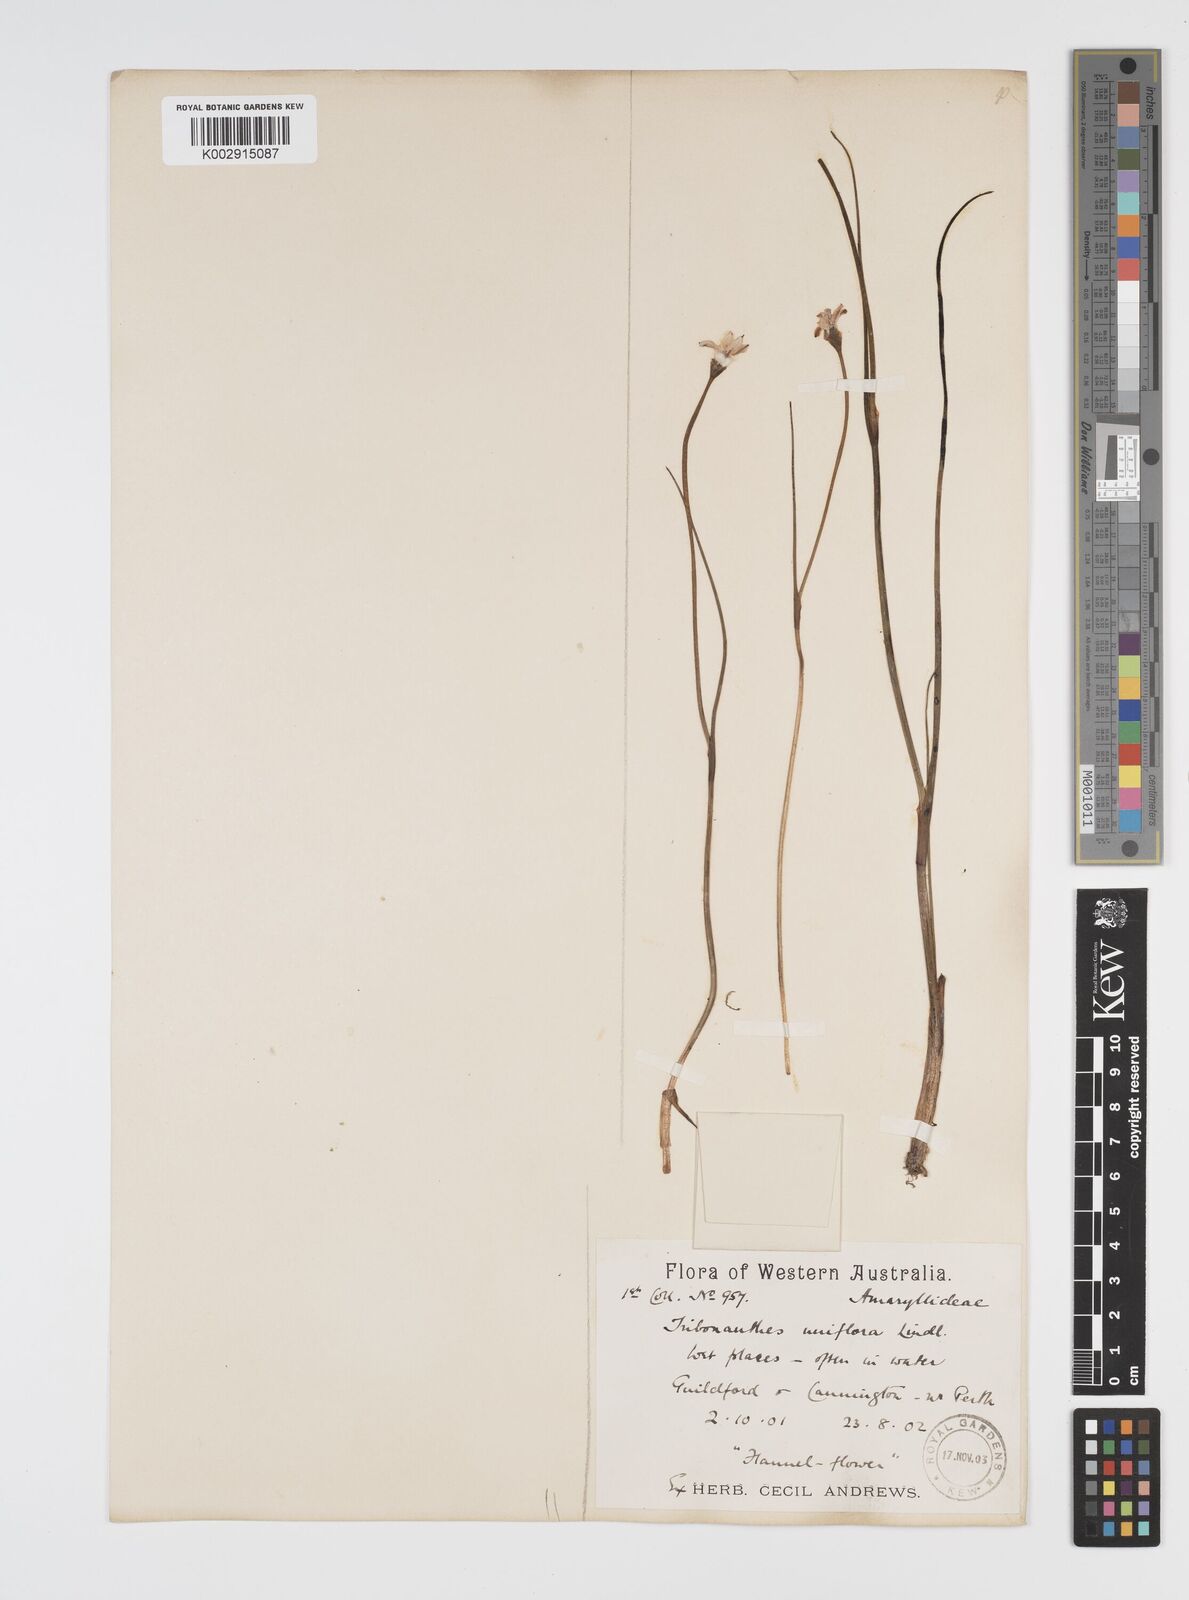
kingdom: Plantae
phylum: Tracheophyta
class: Liliopsida
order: Commelinales
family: Haemodoraceae
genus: Tribonanthes
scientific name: Tribonanthes uniflora
